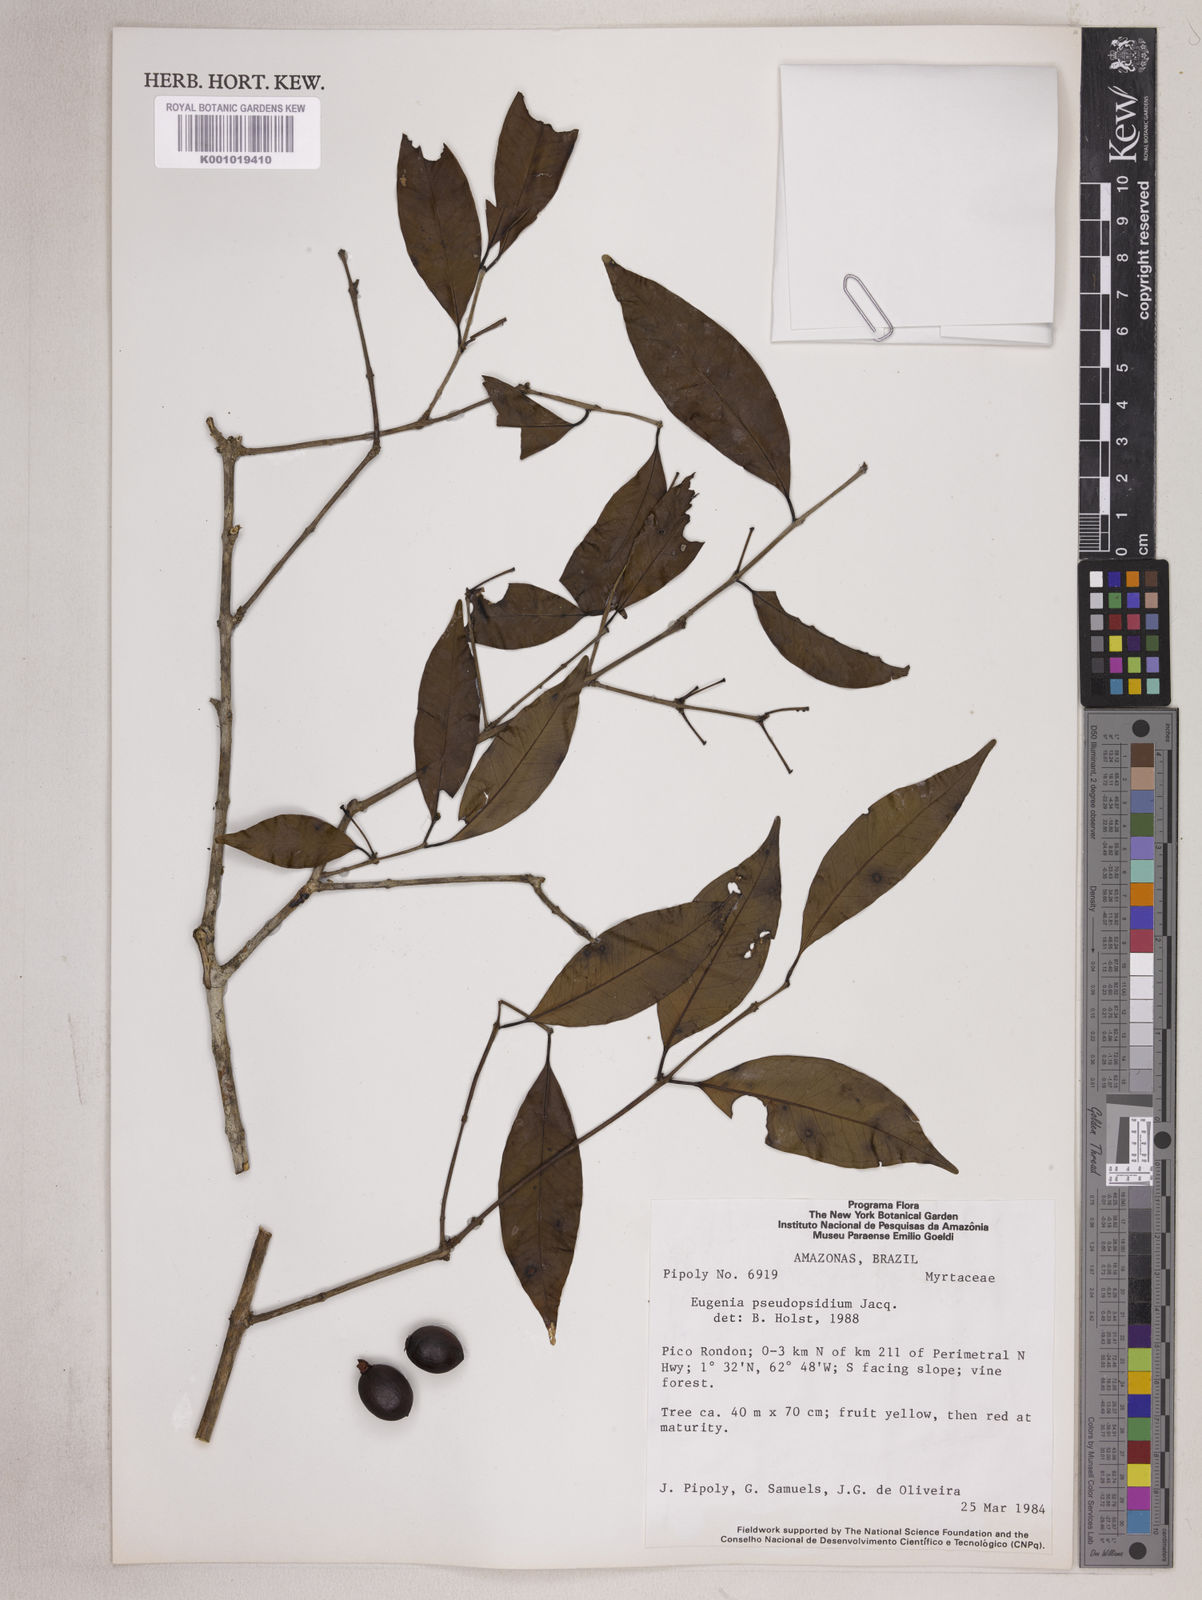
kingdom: Plantae
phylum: Tracheophyta
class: Magnoliopsida
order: Myrtales
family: Myrtaceae
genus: Eugenia
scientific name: Eugenia pseudopsidium
